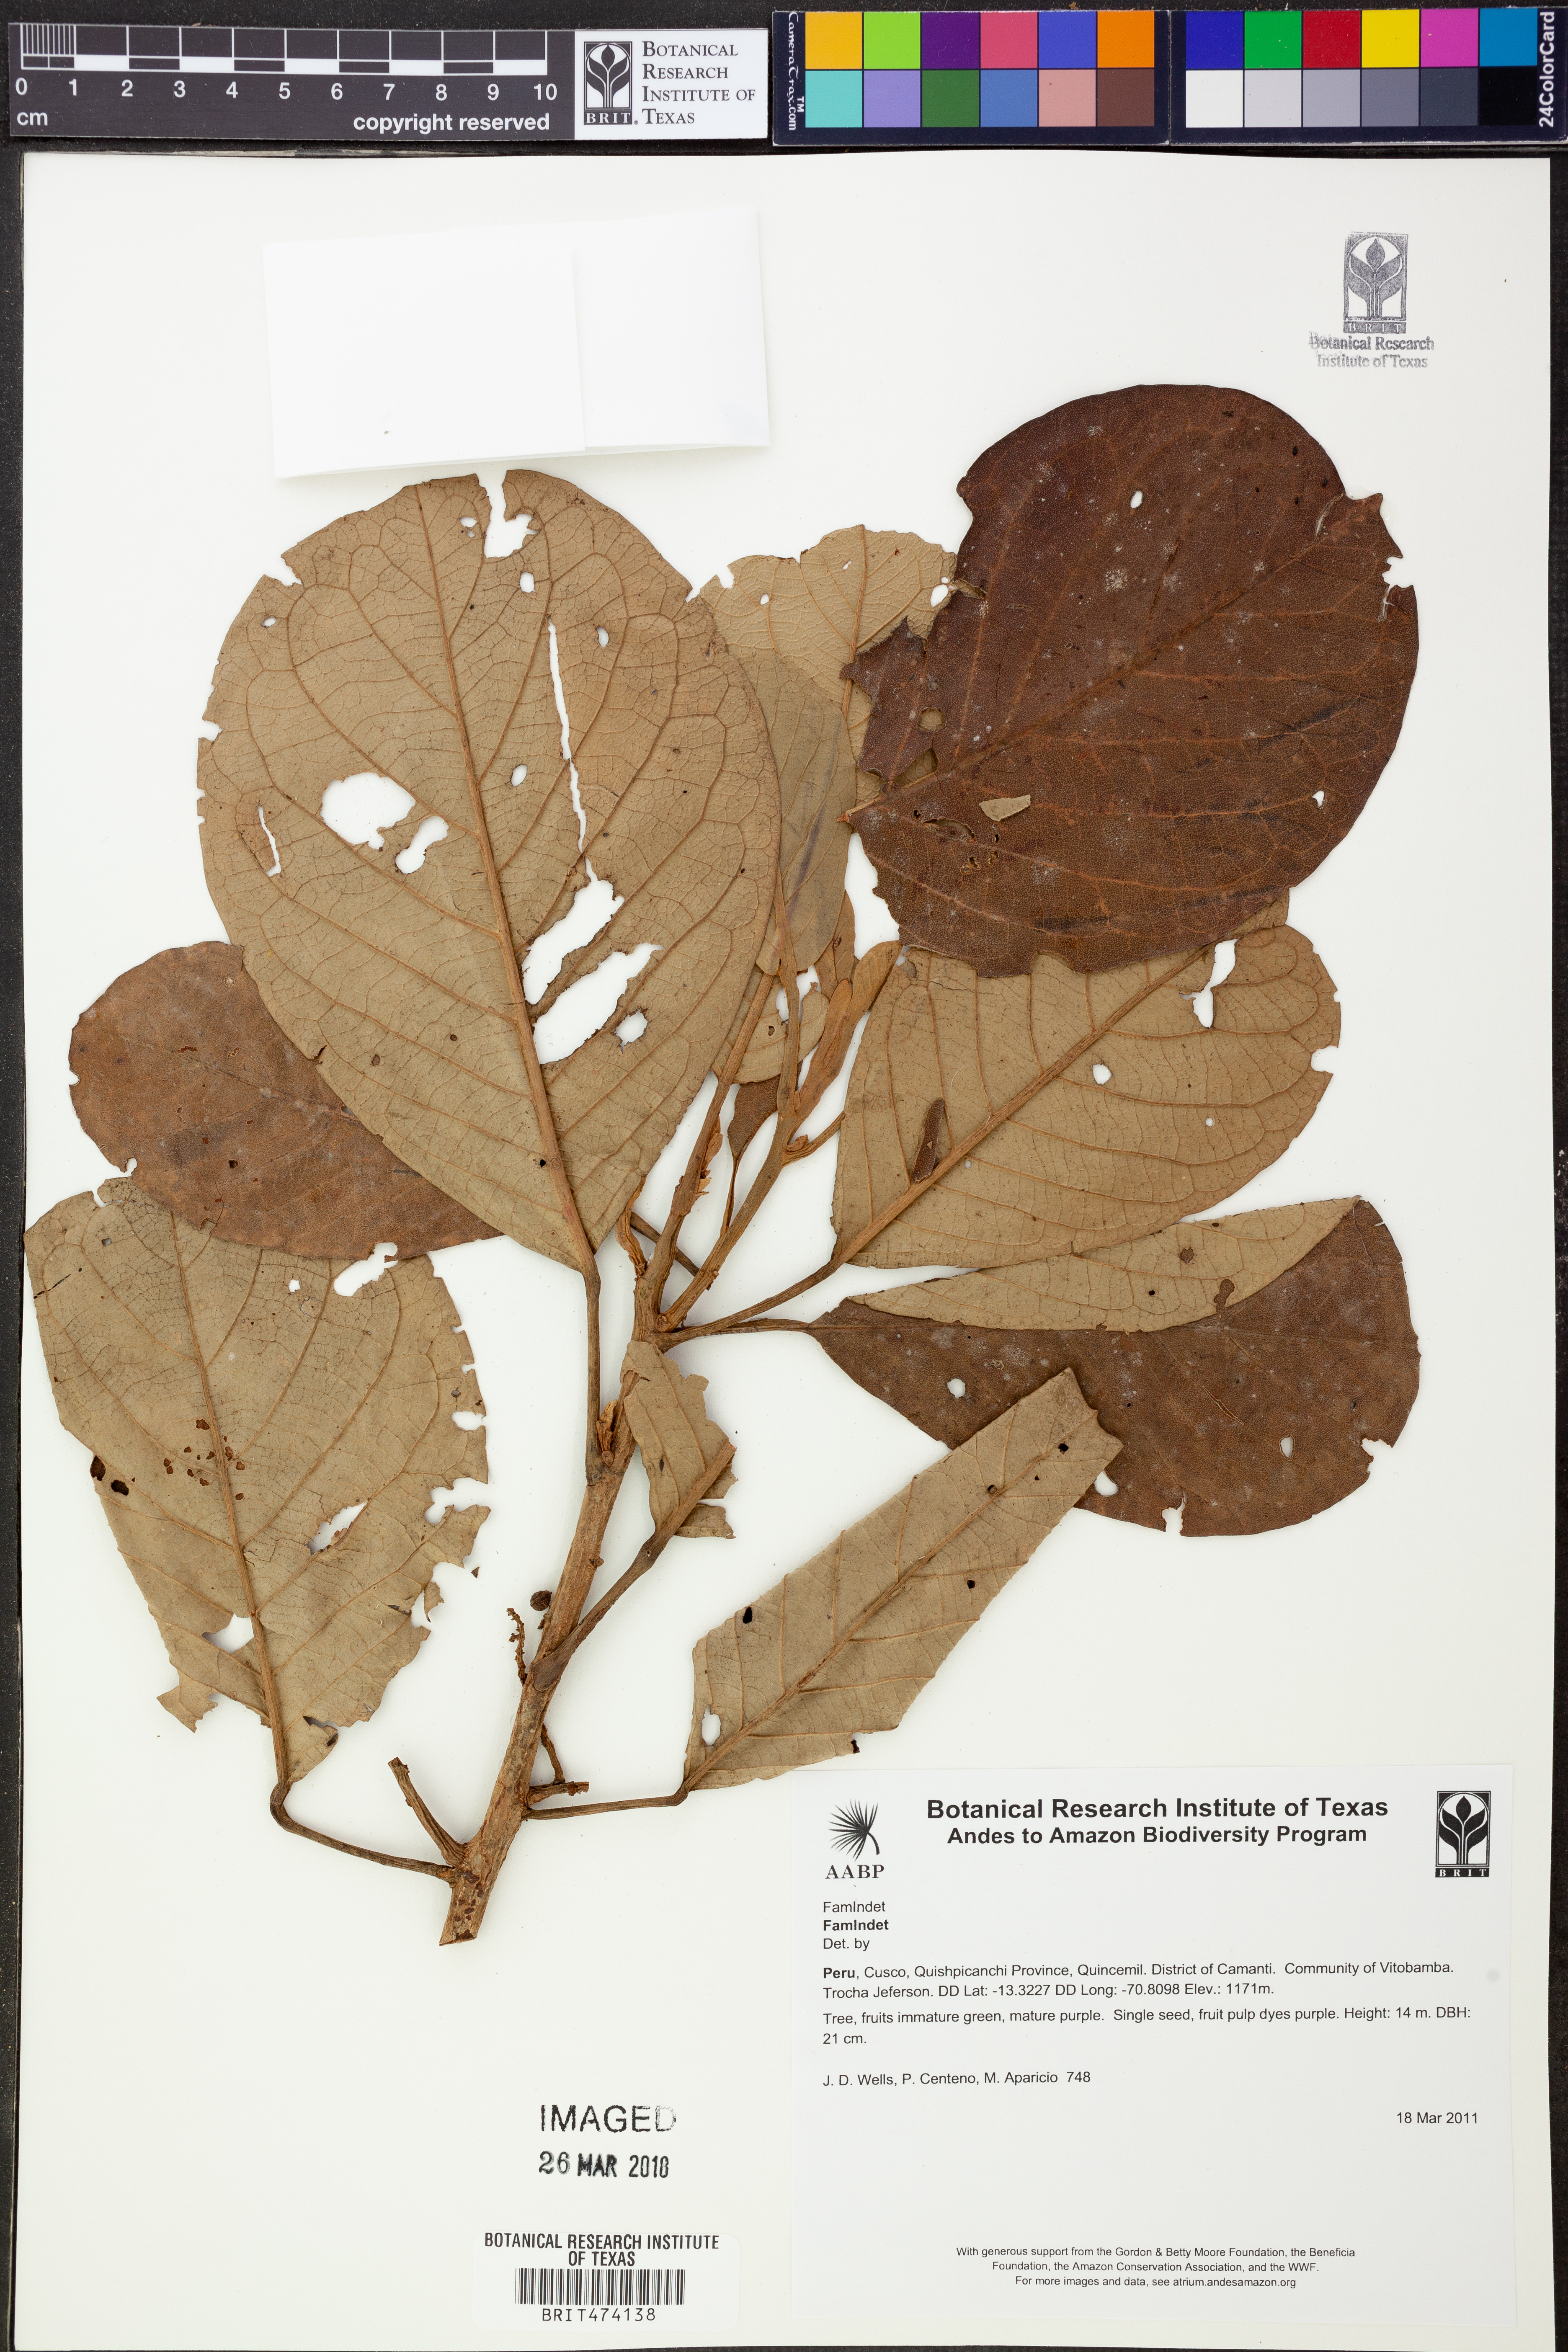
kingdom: Plantae
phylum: Tracheophyta
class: Magnoliopsida
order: Malpighiales
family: Phyllanthaceae
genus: Richeria
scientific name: Richeria
